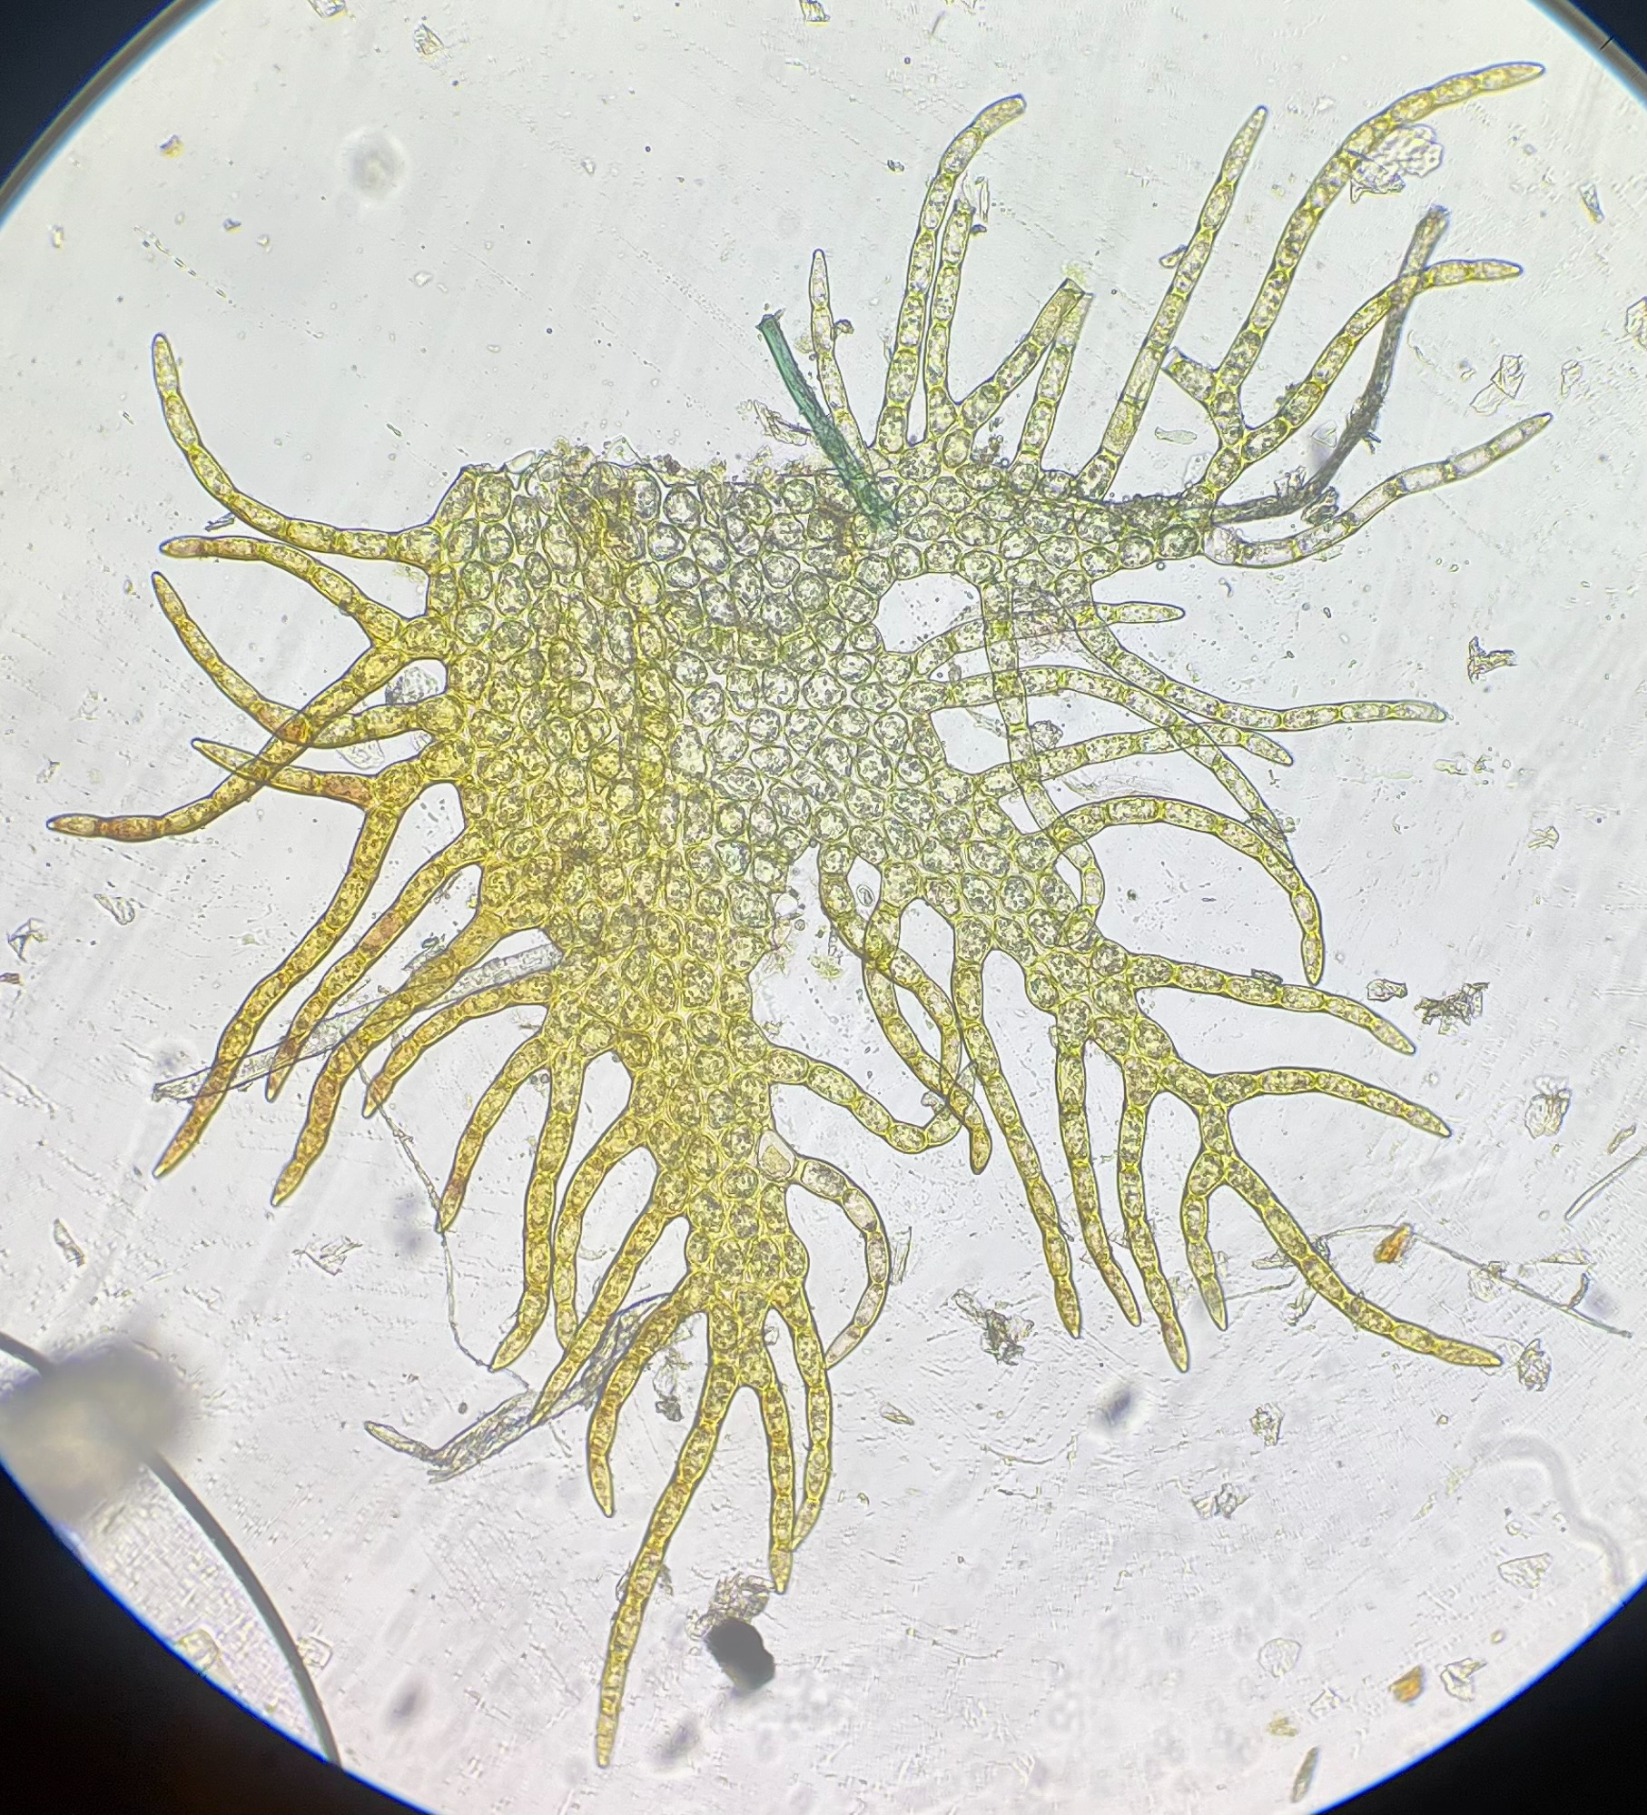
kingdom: Plantae
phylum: Marchantiophyta
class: Jungermanniopsida
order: Ptilidiales
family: Ptilidiaceae
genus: Ptilidium
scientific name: Ptilidium pulcherrimum
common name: Stub-frynsemos
